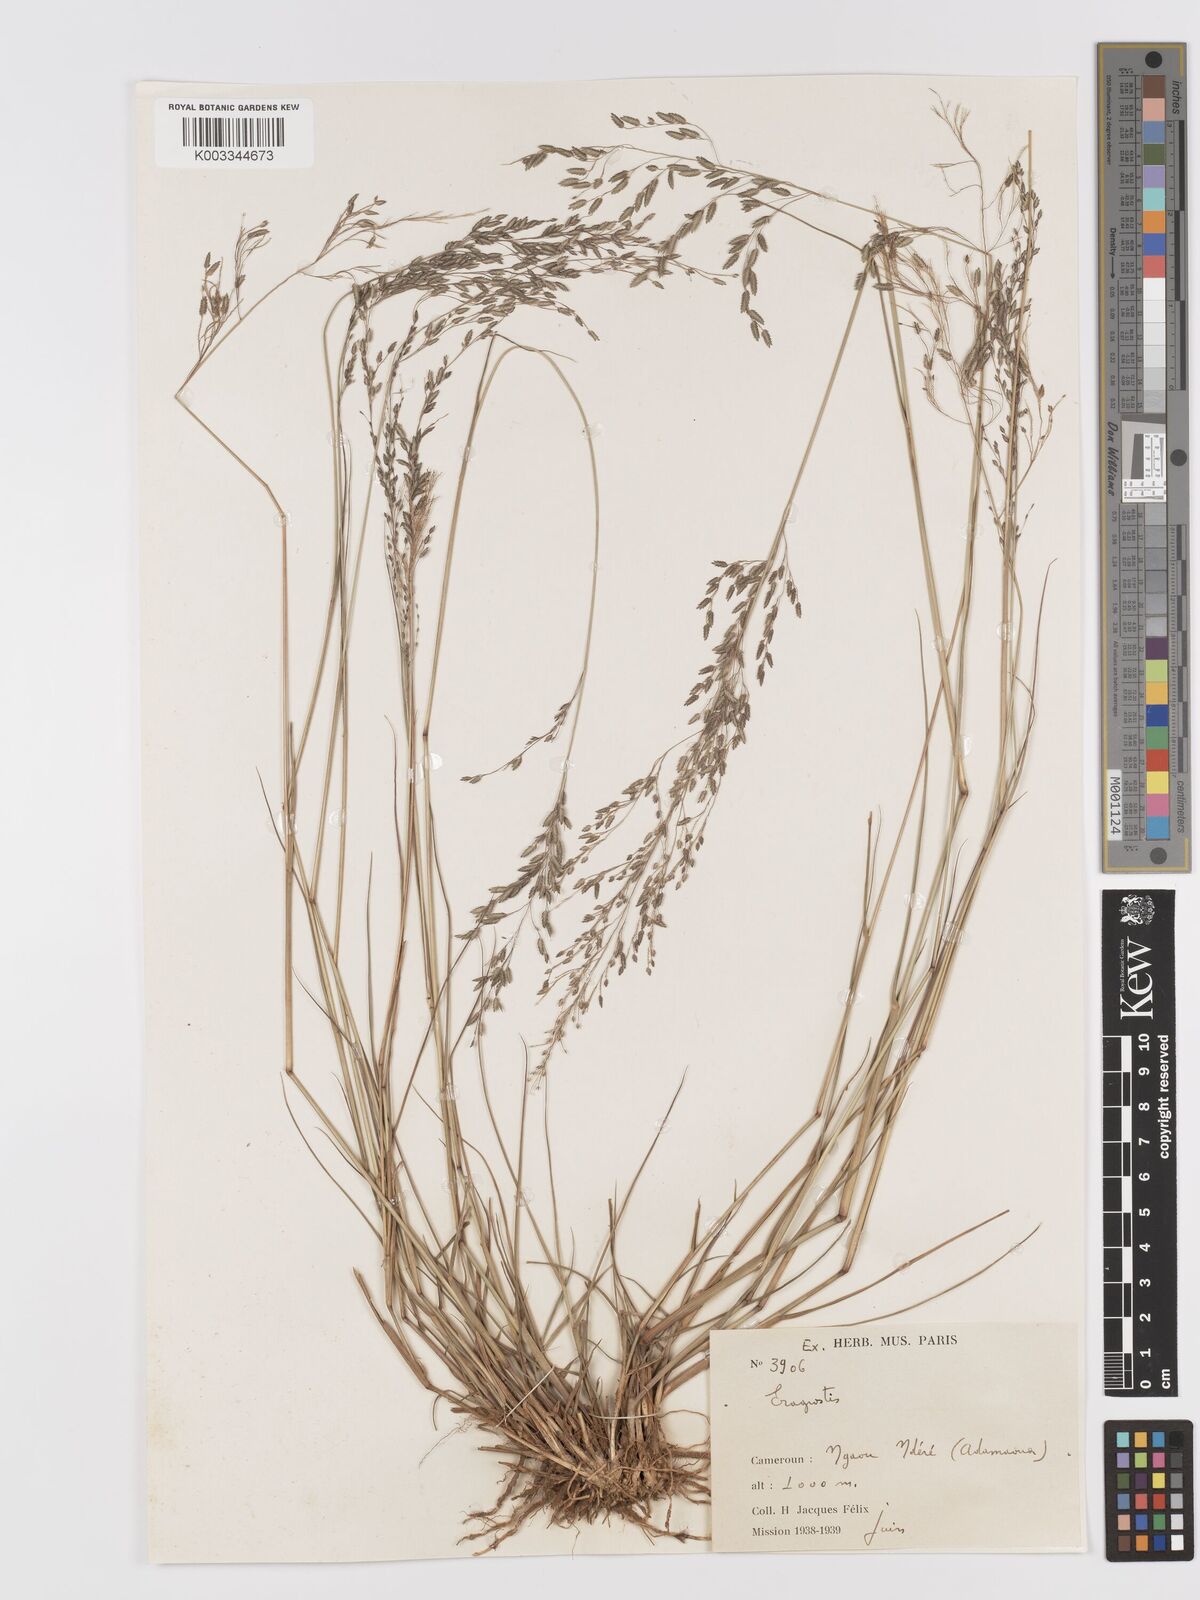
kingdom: Plantae
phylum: Tracheophyta
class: Liliopsida
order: Poales
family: Poaceae
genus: Eragrostis
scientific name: Eragrostis atrovirens
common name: Thalia lovegrass
